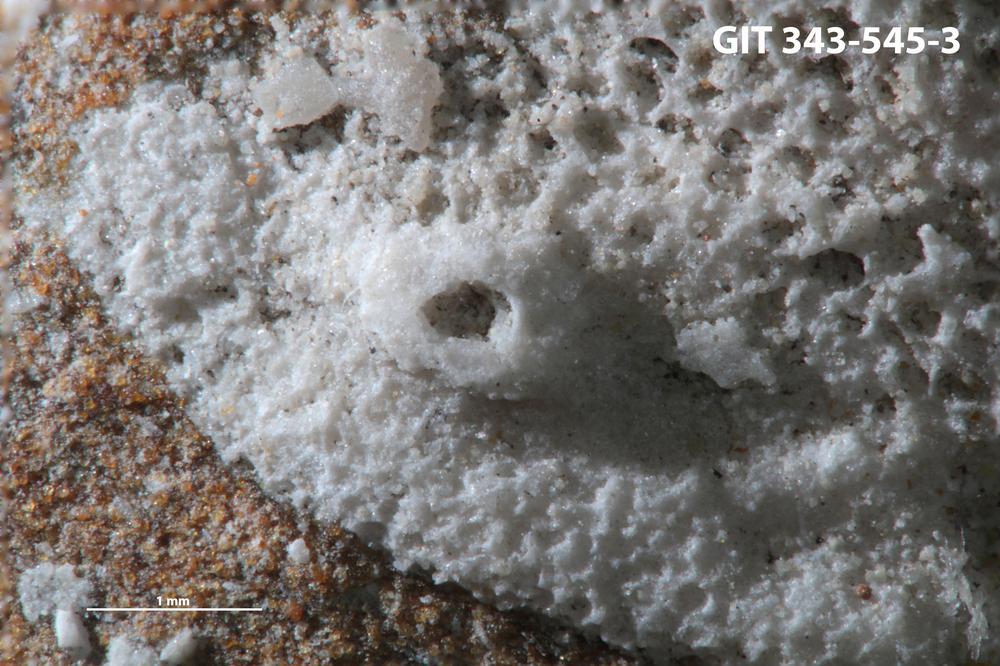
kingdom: Animalia
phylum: Annelida
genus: Anoigmaichnus
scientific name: Anoigmaichnus
